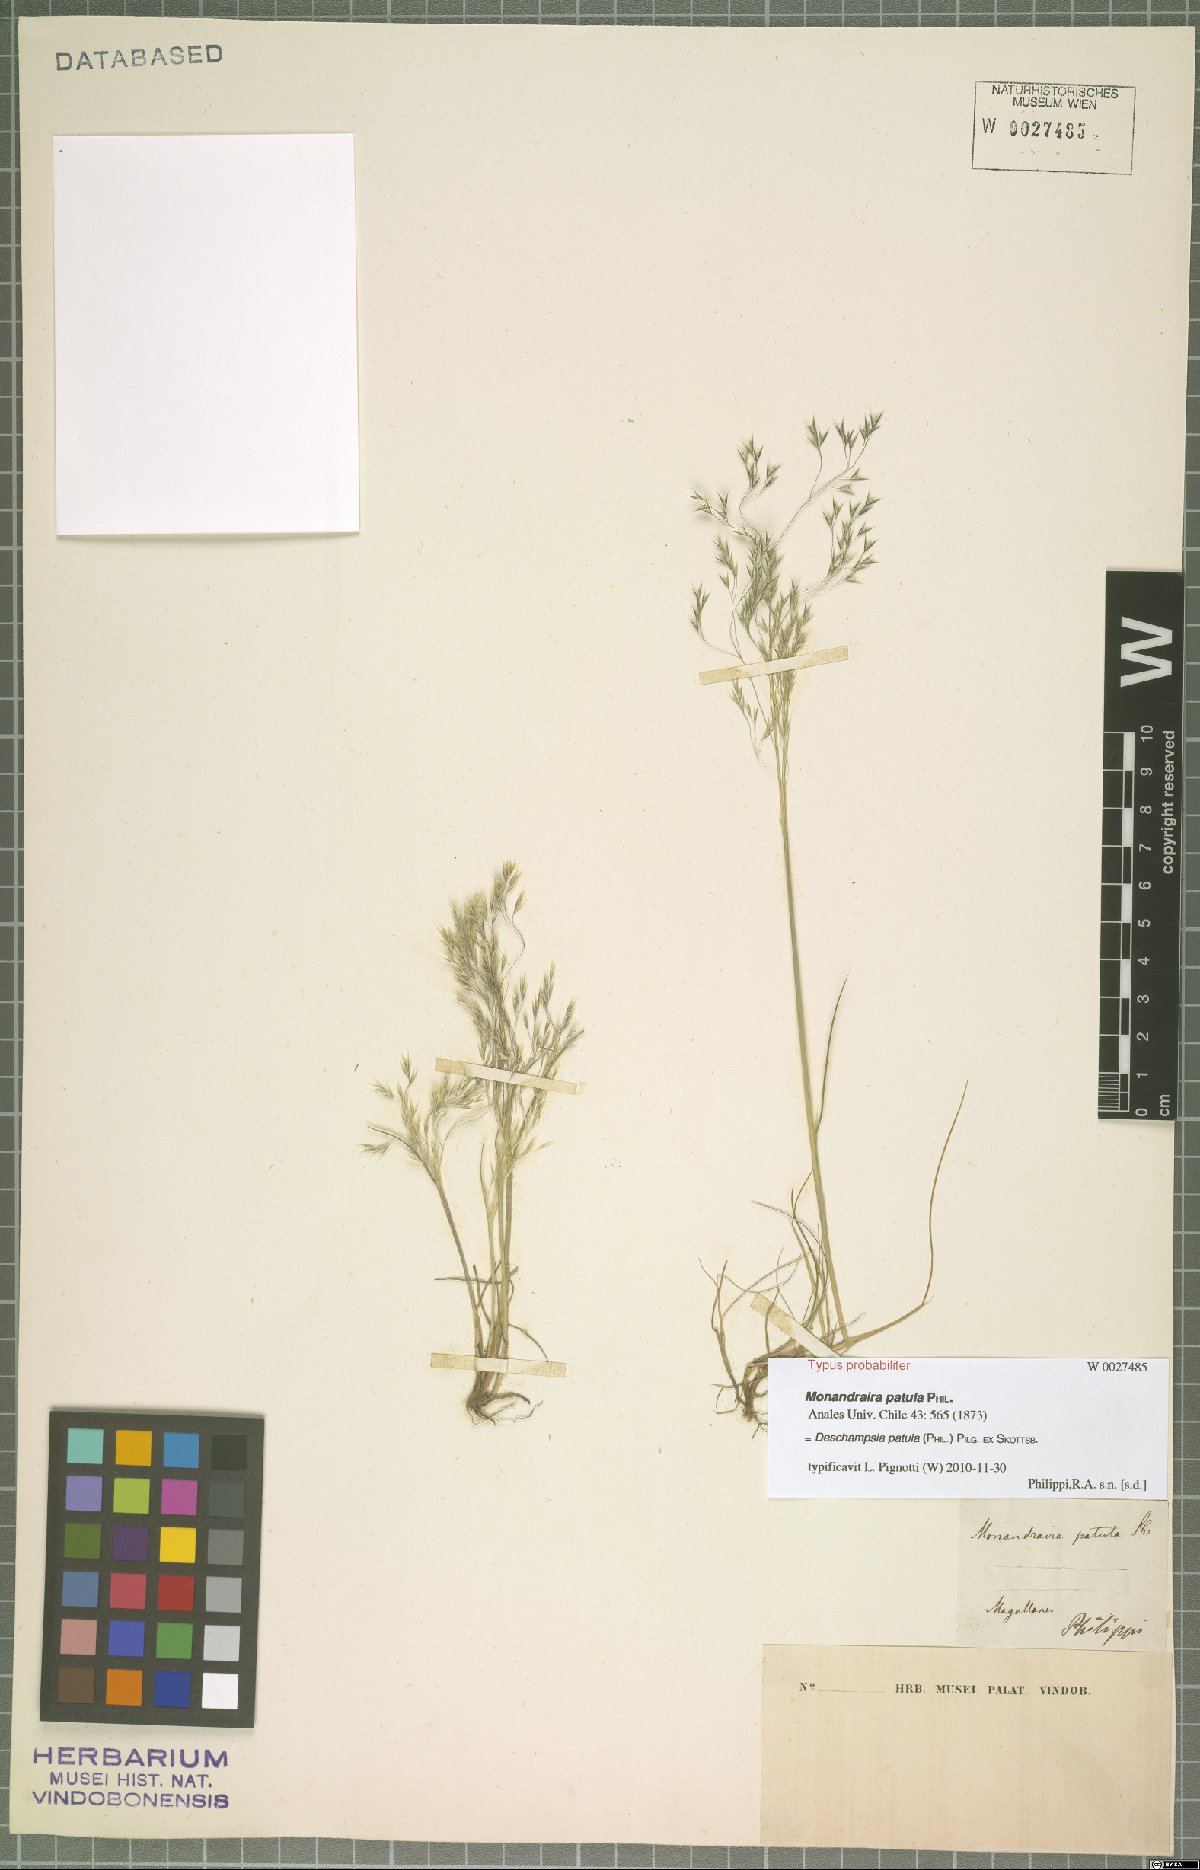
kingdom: Plantae
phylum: Tracheophyta
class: Liliopsida
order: Poales
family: Poaceae
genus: Deschampsia
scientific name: Deschampsia patula
